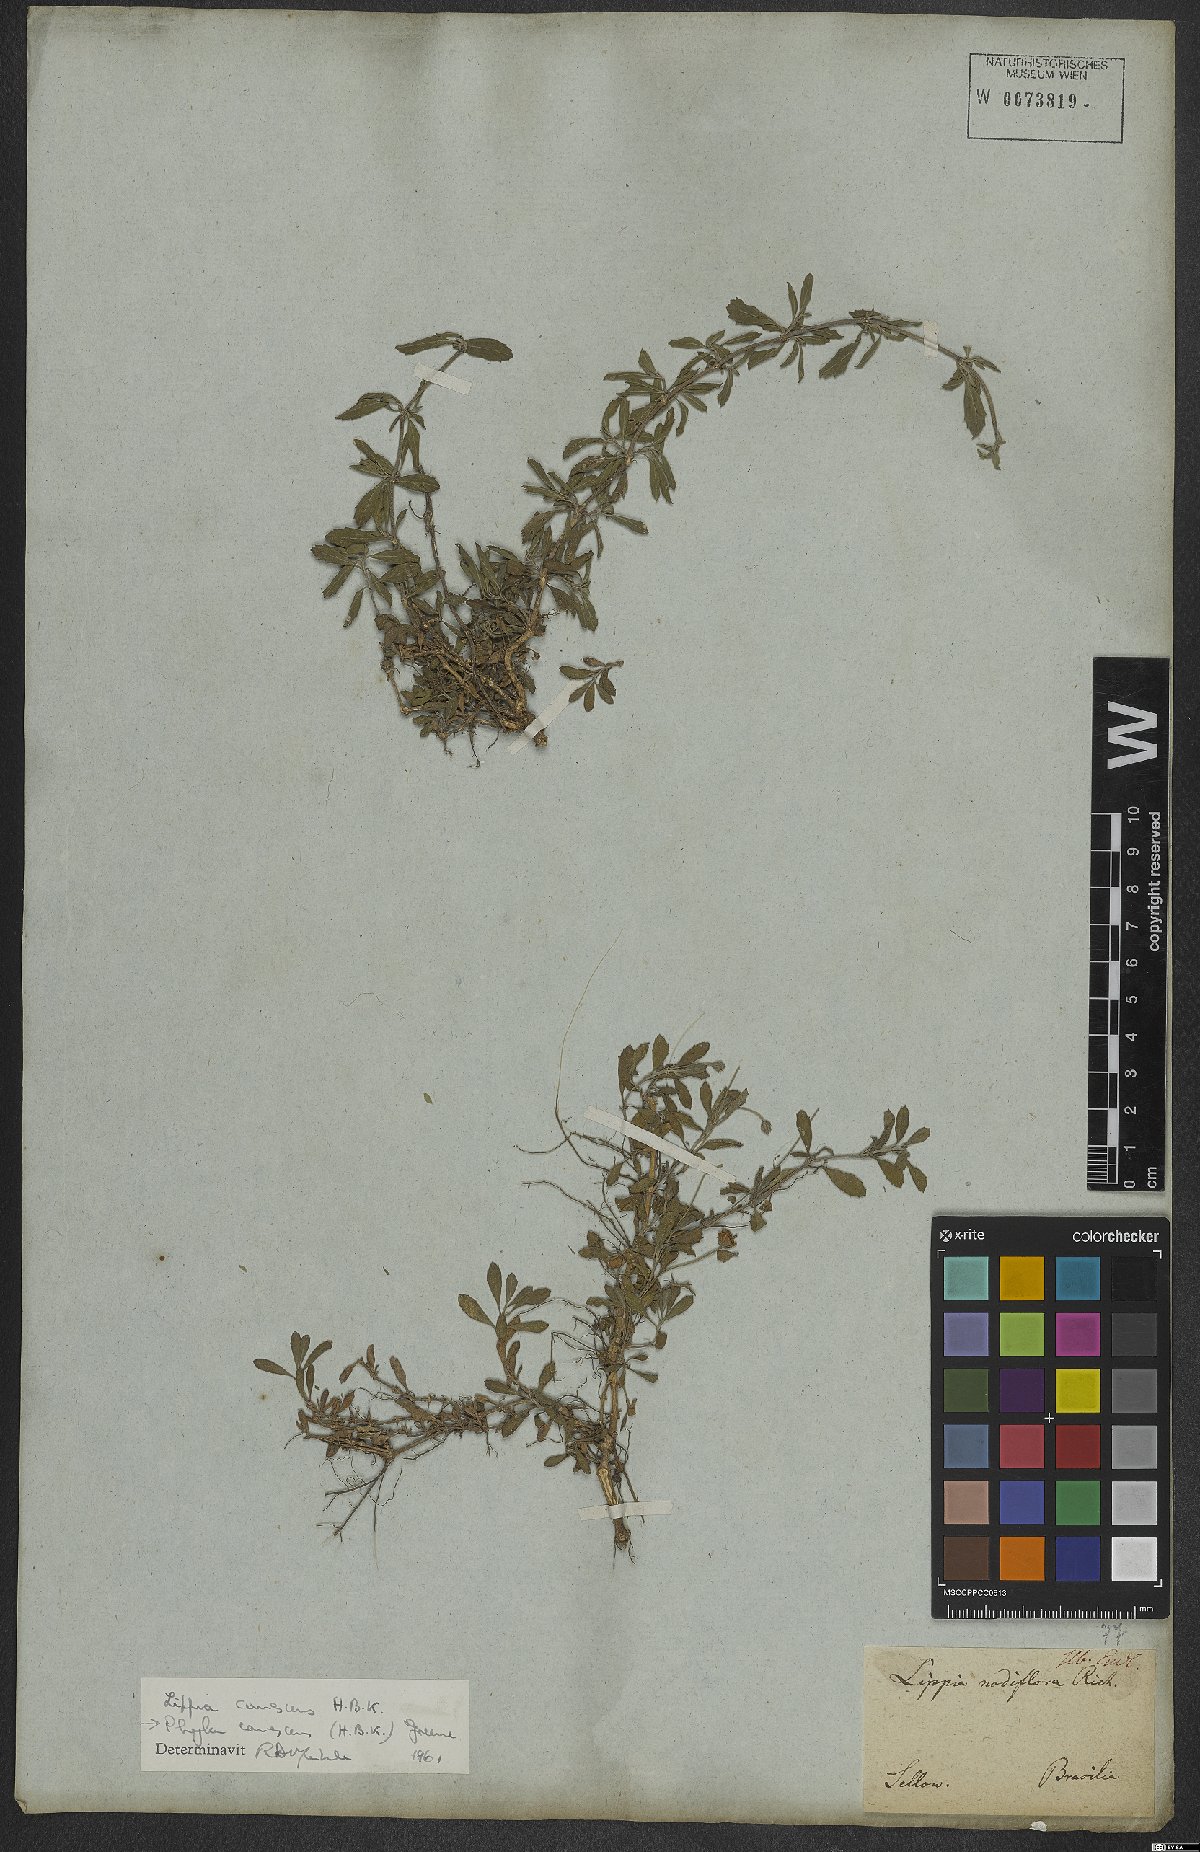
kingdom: Plantae
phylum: Tracheophyta
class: Magnoliopsida
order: Lamiales
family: Verbenaceae
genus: Phyla
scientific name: Phyla nodiflora
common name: Frogfruit
